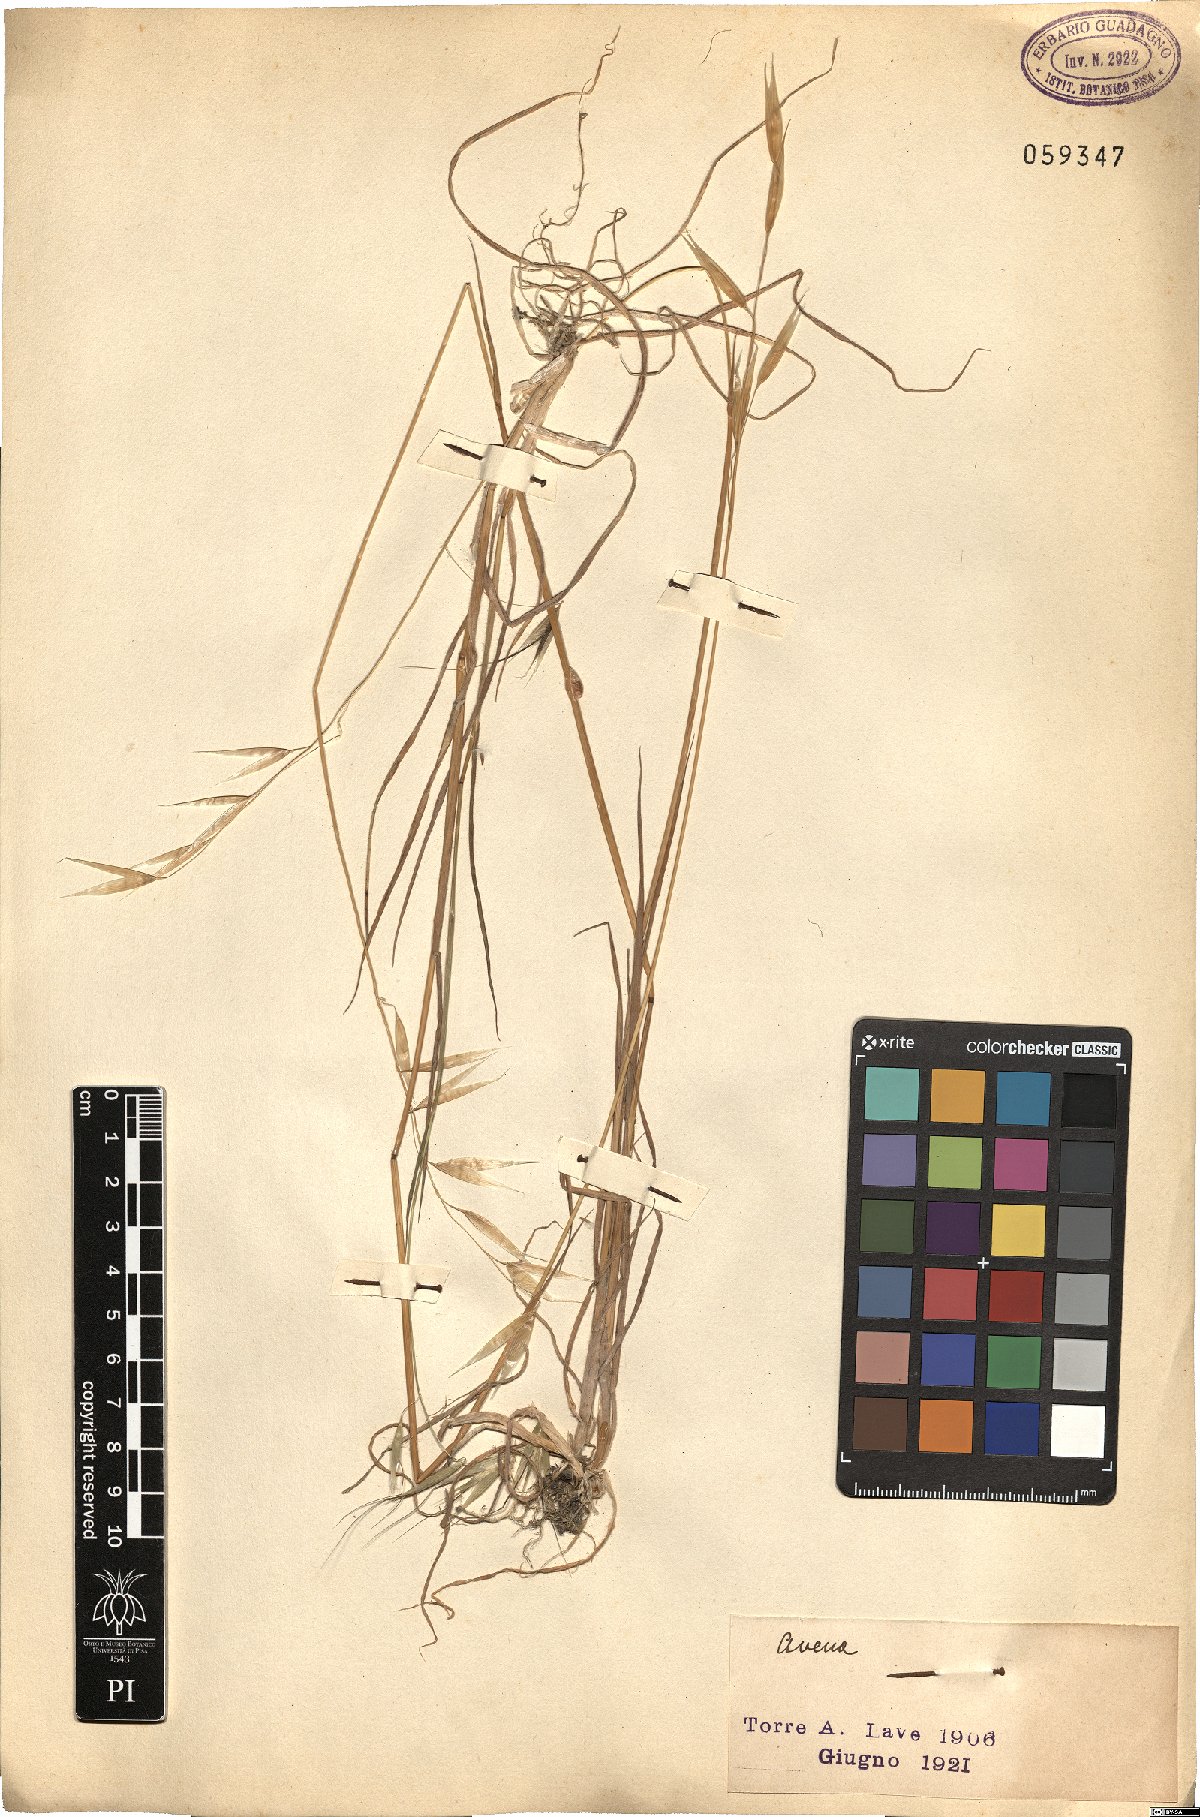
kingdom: Plantae
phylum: Tracheophyta
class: Liliopsida
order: Poales
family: Poaceae
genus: Avena
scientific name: Avena
